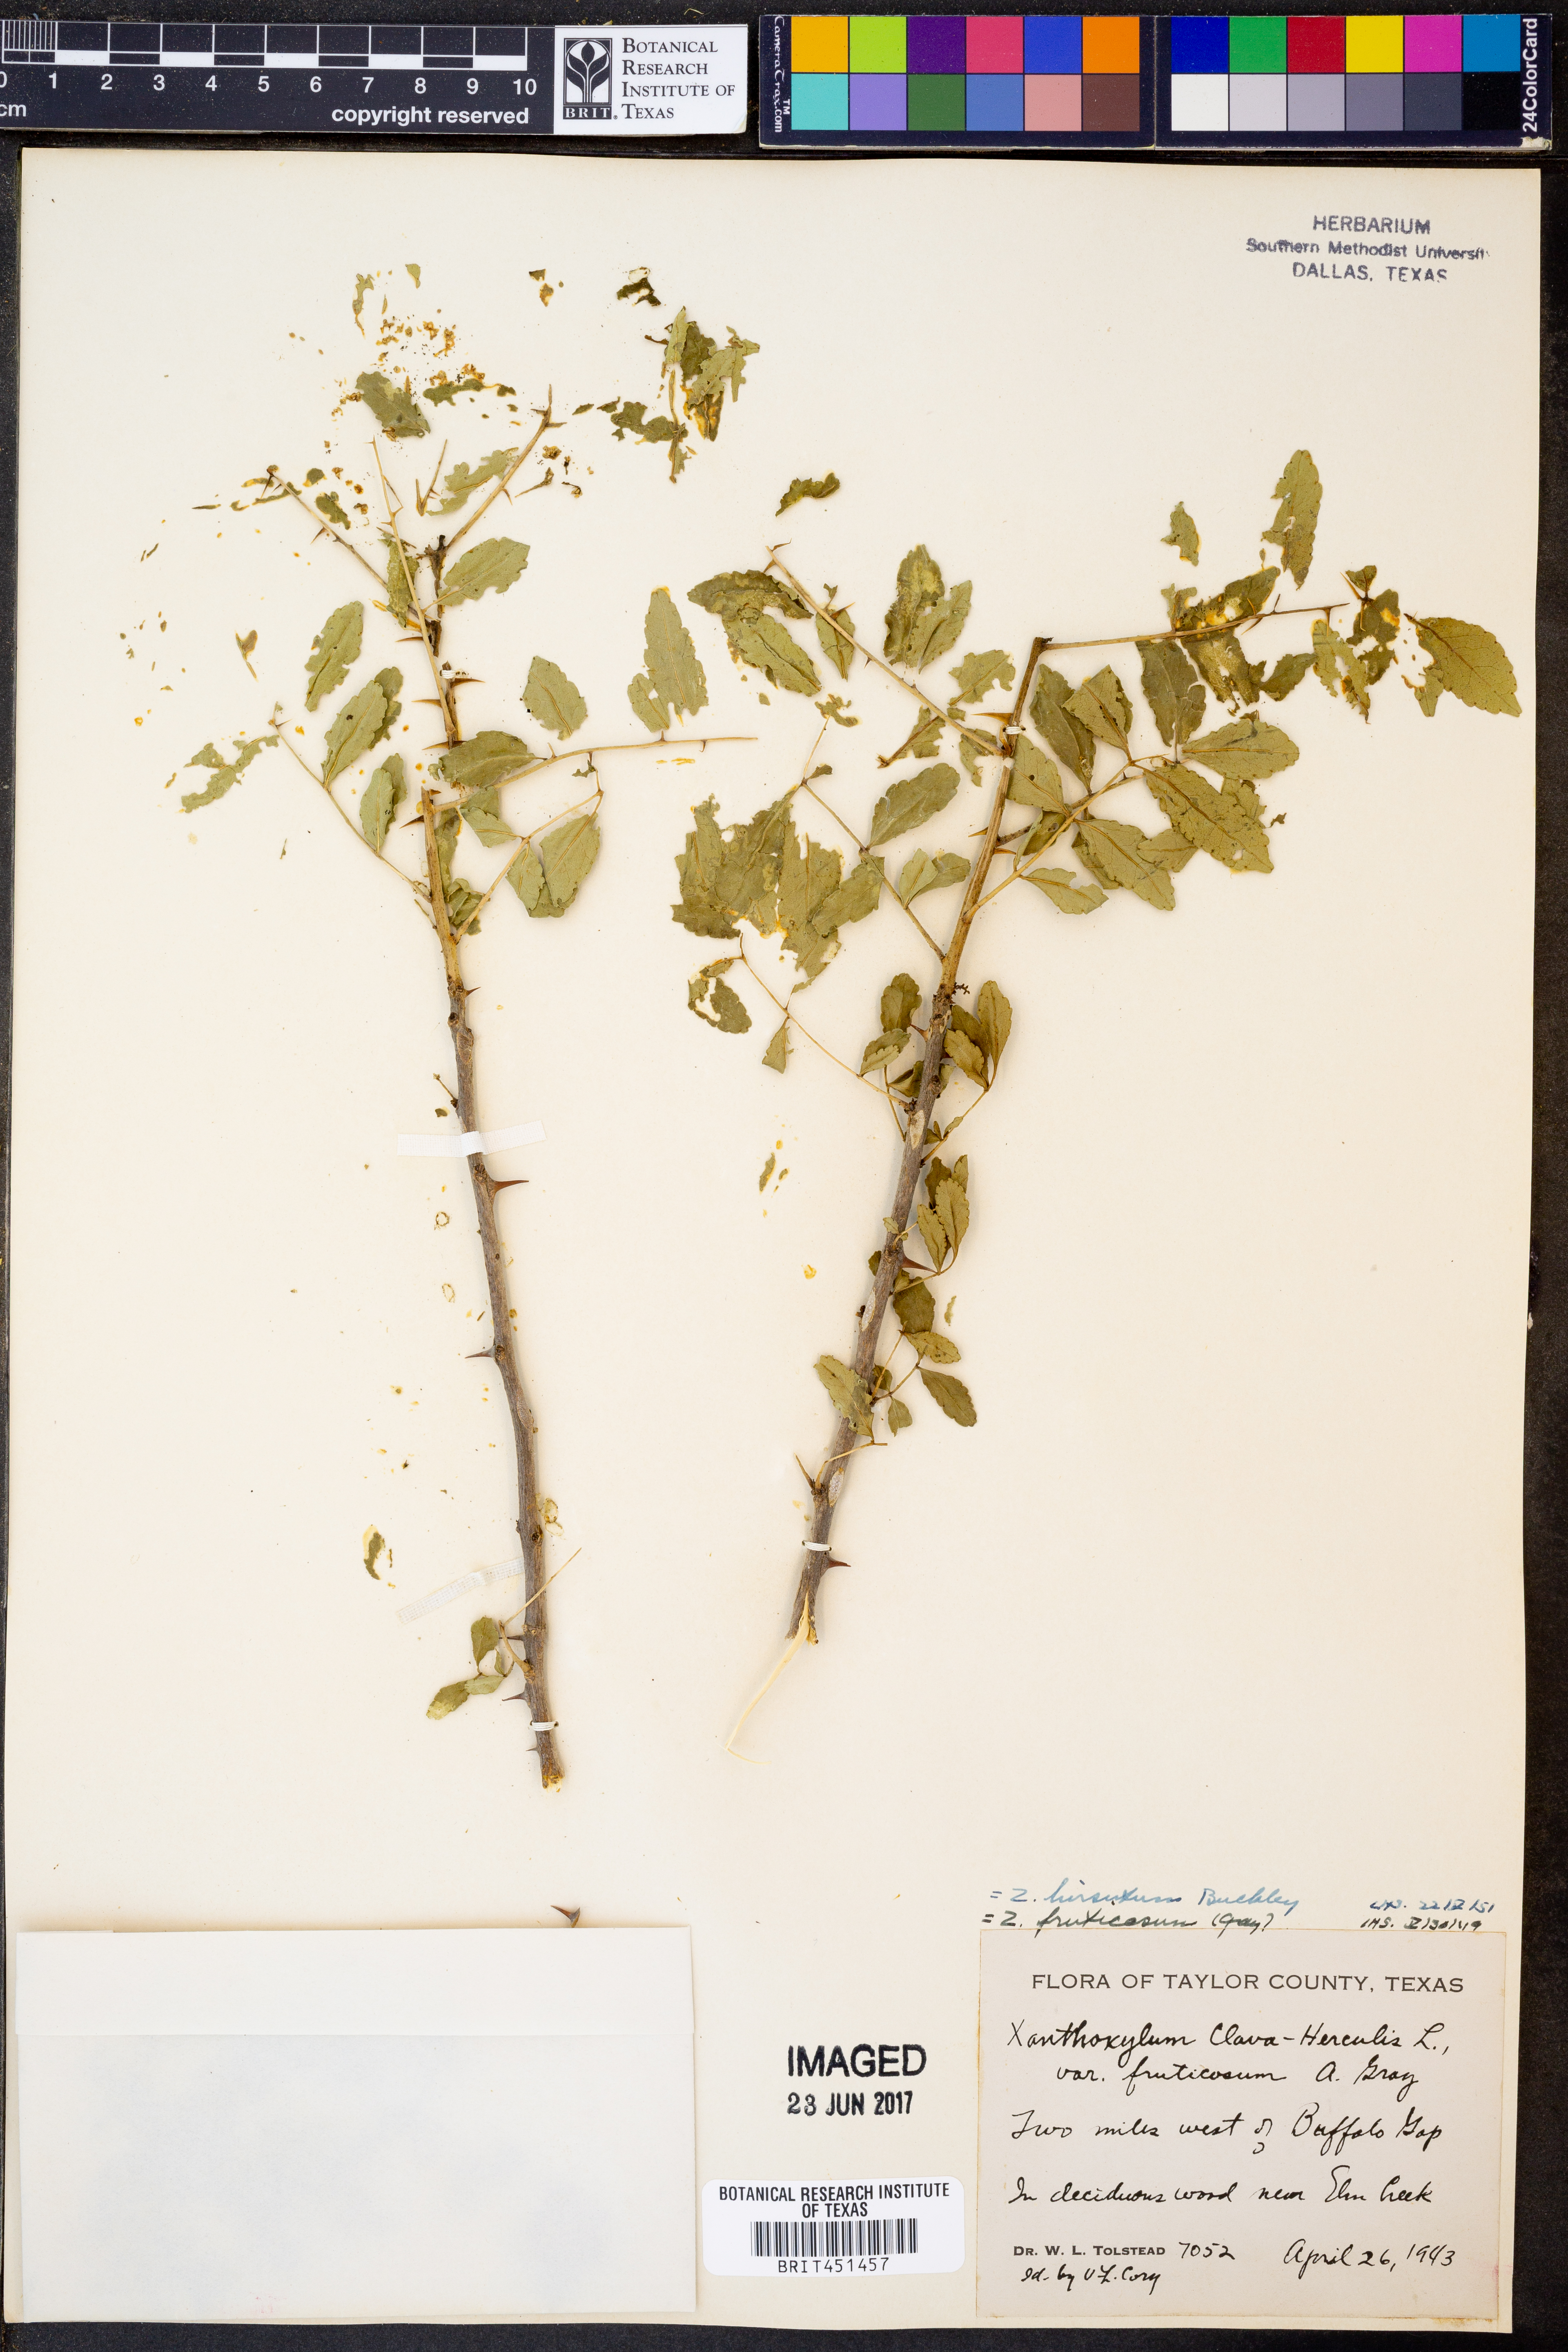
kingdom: Plantae
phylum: Tracheophyta
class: Magnoliopsida
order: Sapindales
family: Rutaceae
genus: Zanthoxylum
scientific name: Zanthoxylum clava-herculis
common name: Hercules'-club
